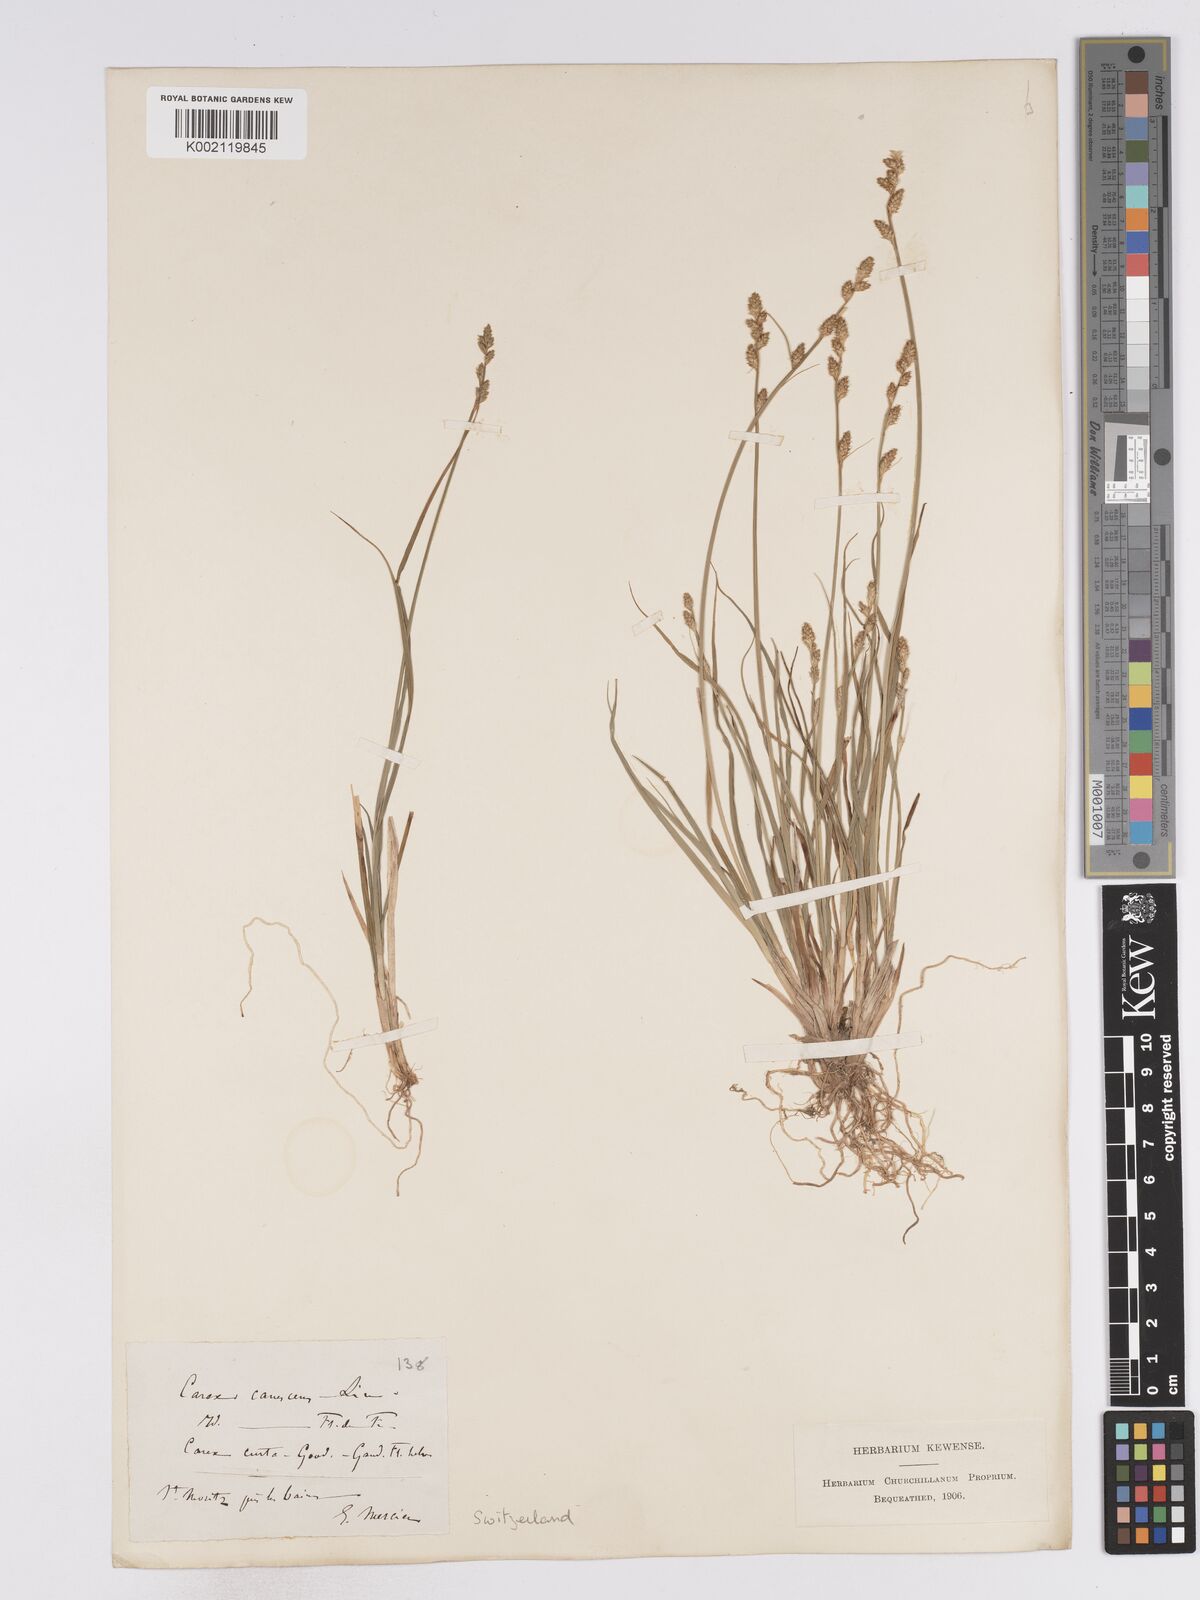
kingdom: Plantae
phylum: Tracheophyta
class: Liliopsida
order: Poales
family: Cyperaceae
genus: Carex
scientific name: Carex curta
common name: White sedge
